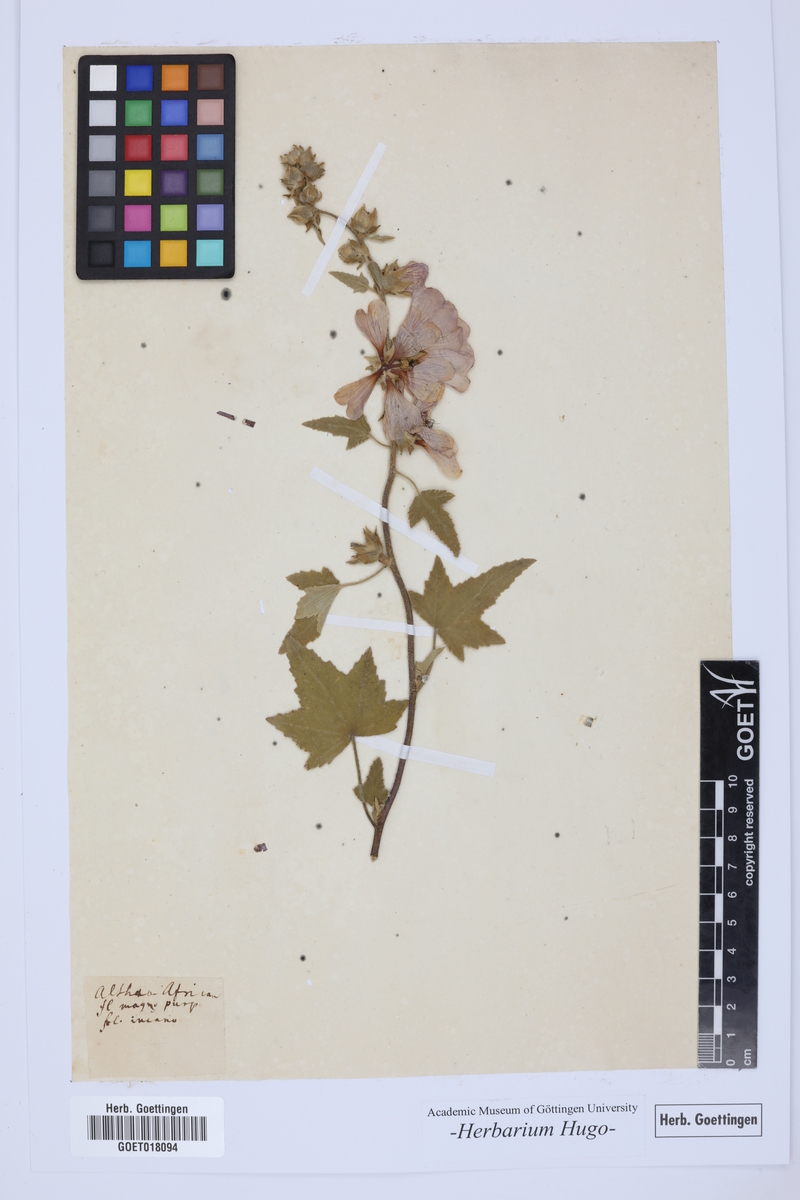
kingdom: Plantae
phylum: Tracheophyta
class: Magnoliopsida
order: Malvales
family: Malvaceae
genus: Althaea
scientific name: Althaea
